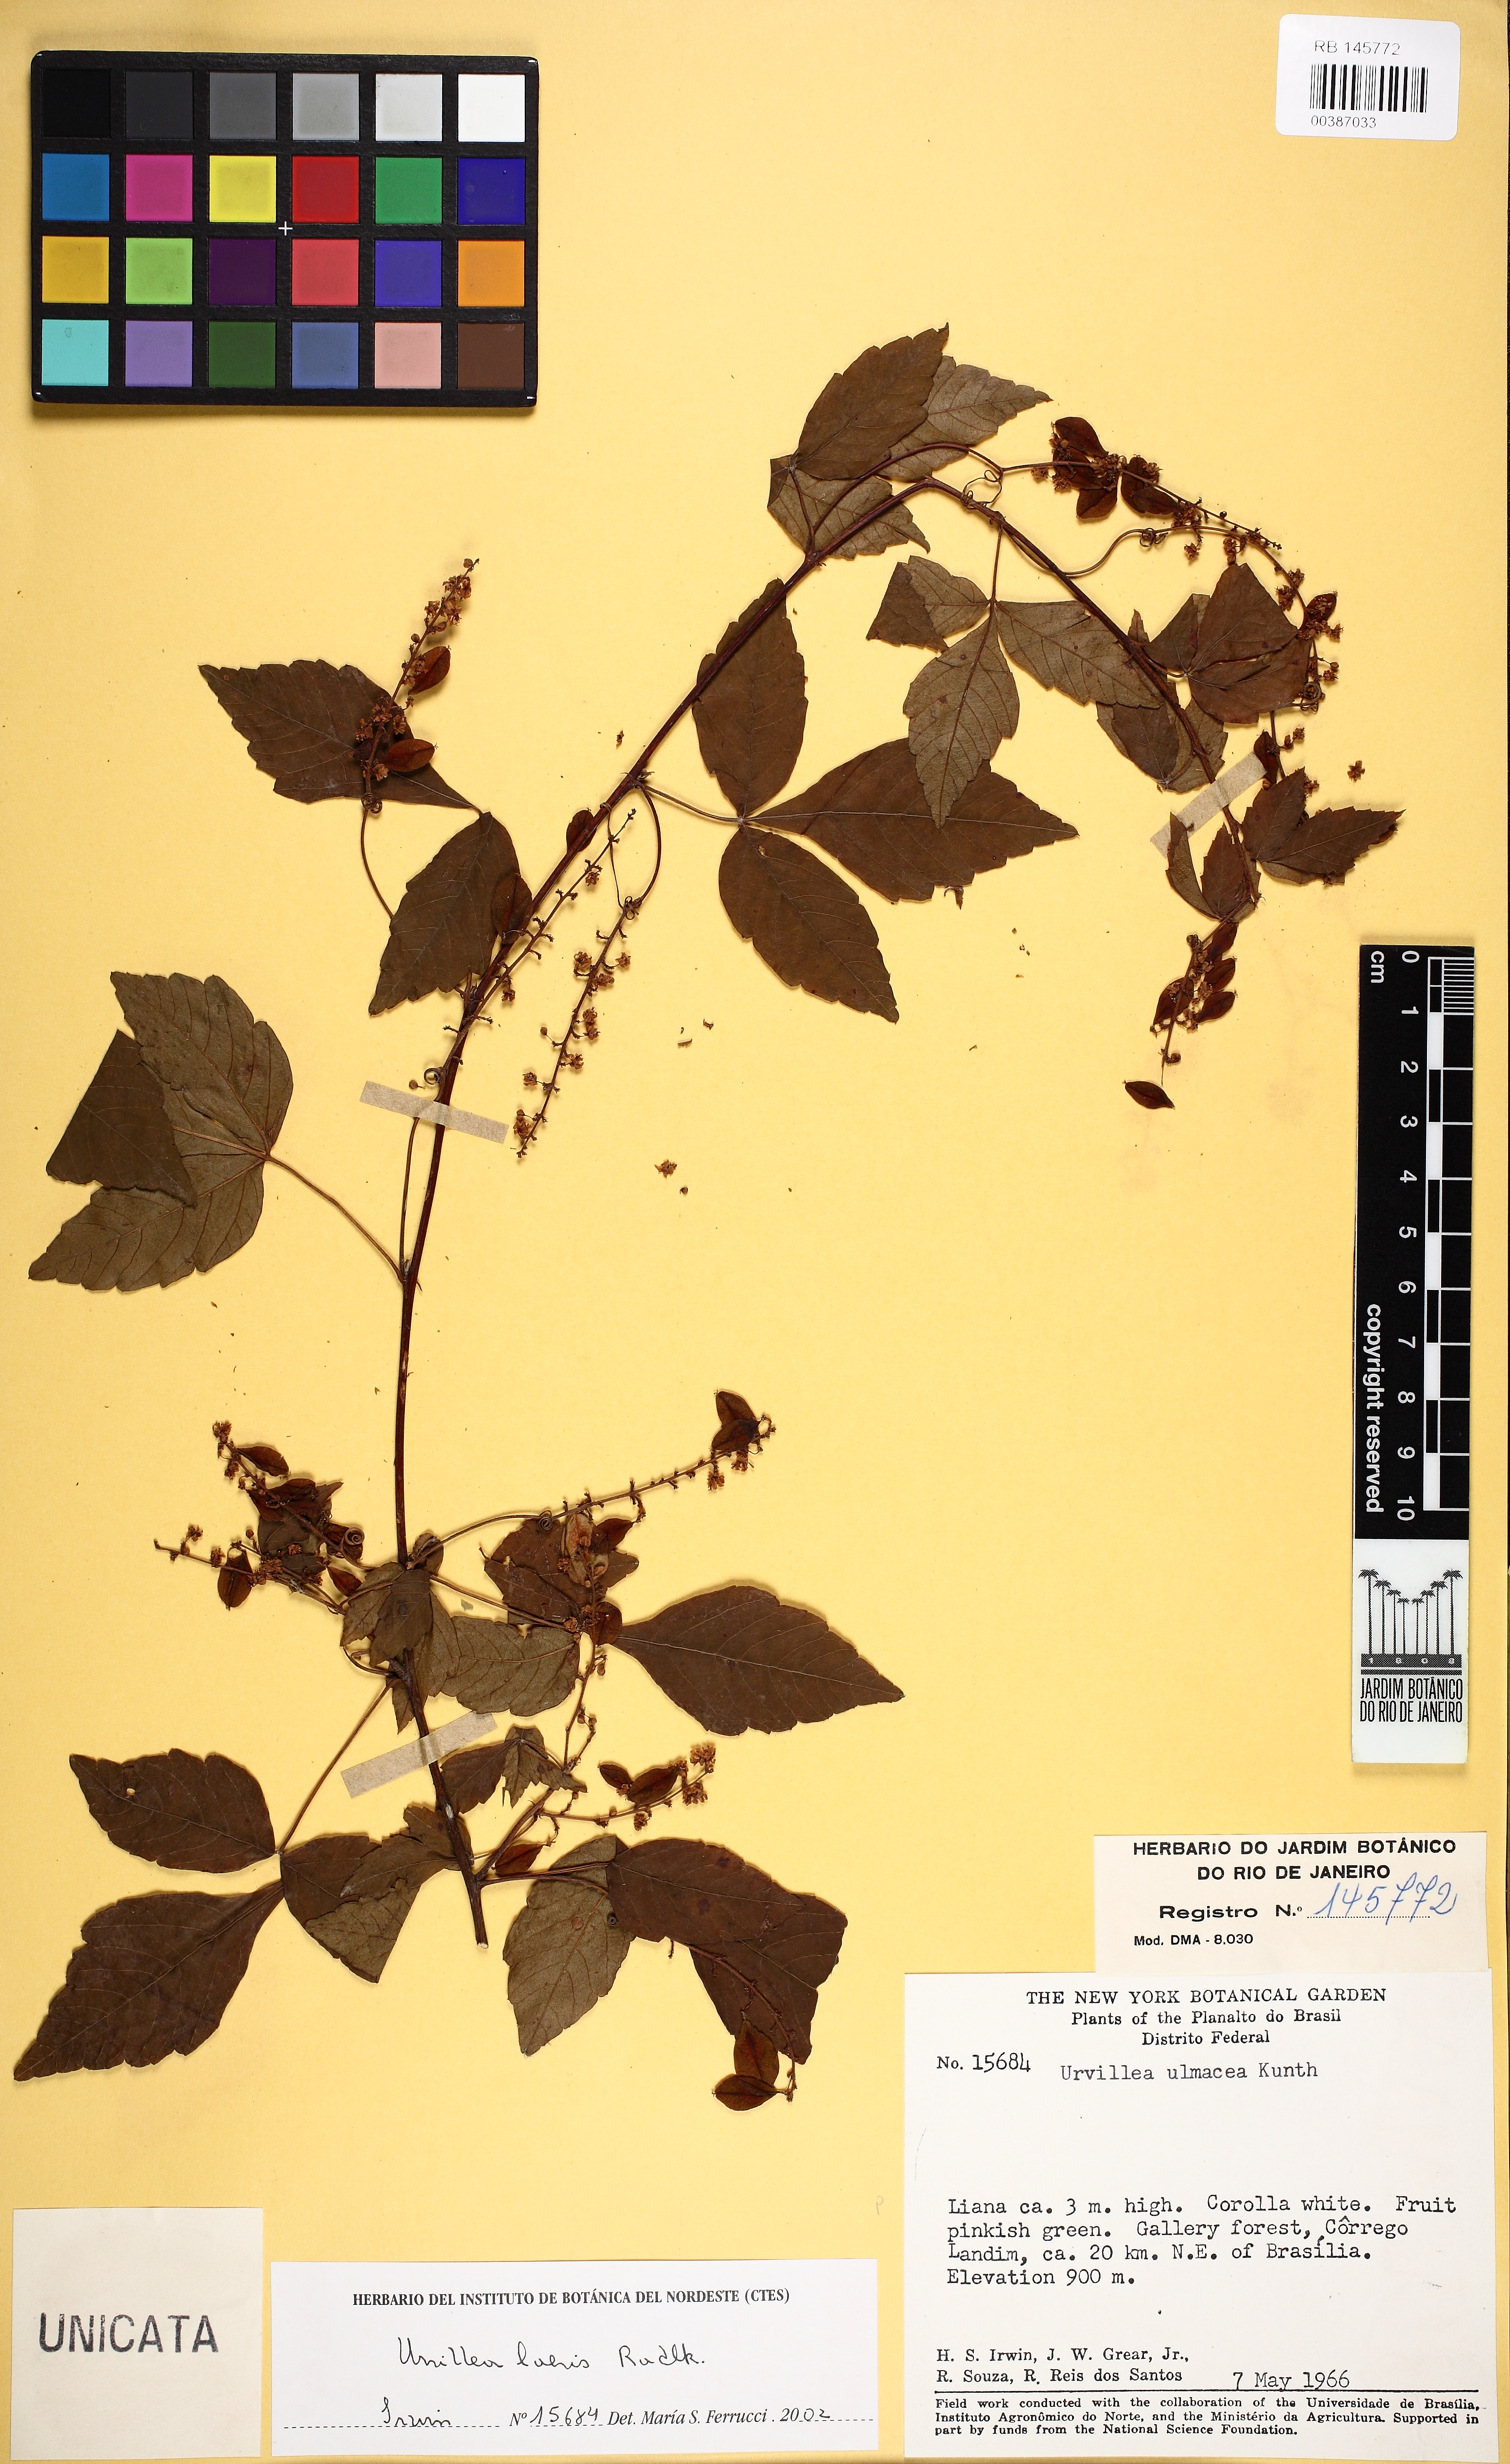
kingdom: Plantae
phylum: Tracheophyta
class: Magnoliopsida
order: Sapindales
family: Sapindaceae
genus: Urvillea
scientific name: Urvillea laevis
